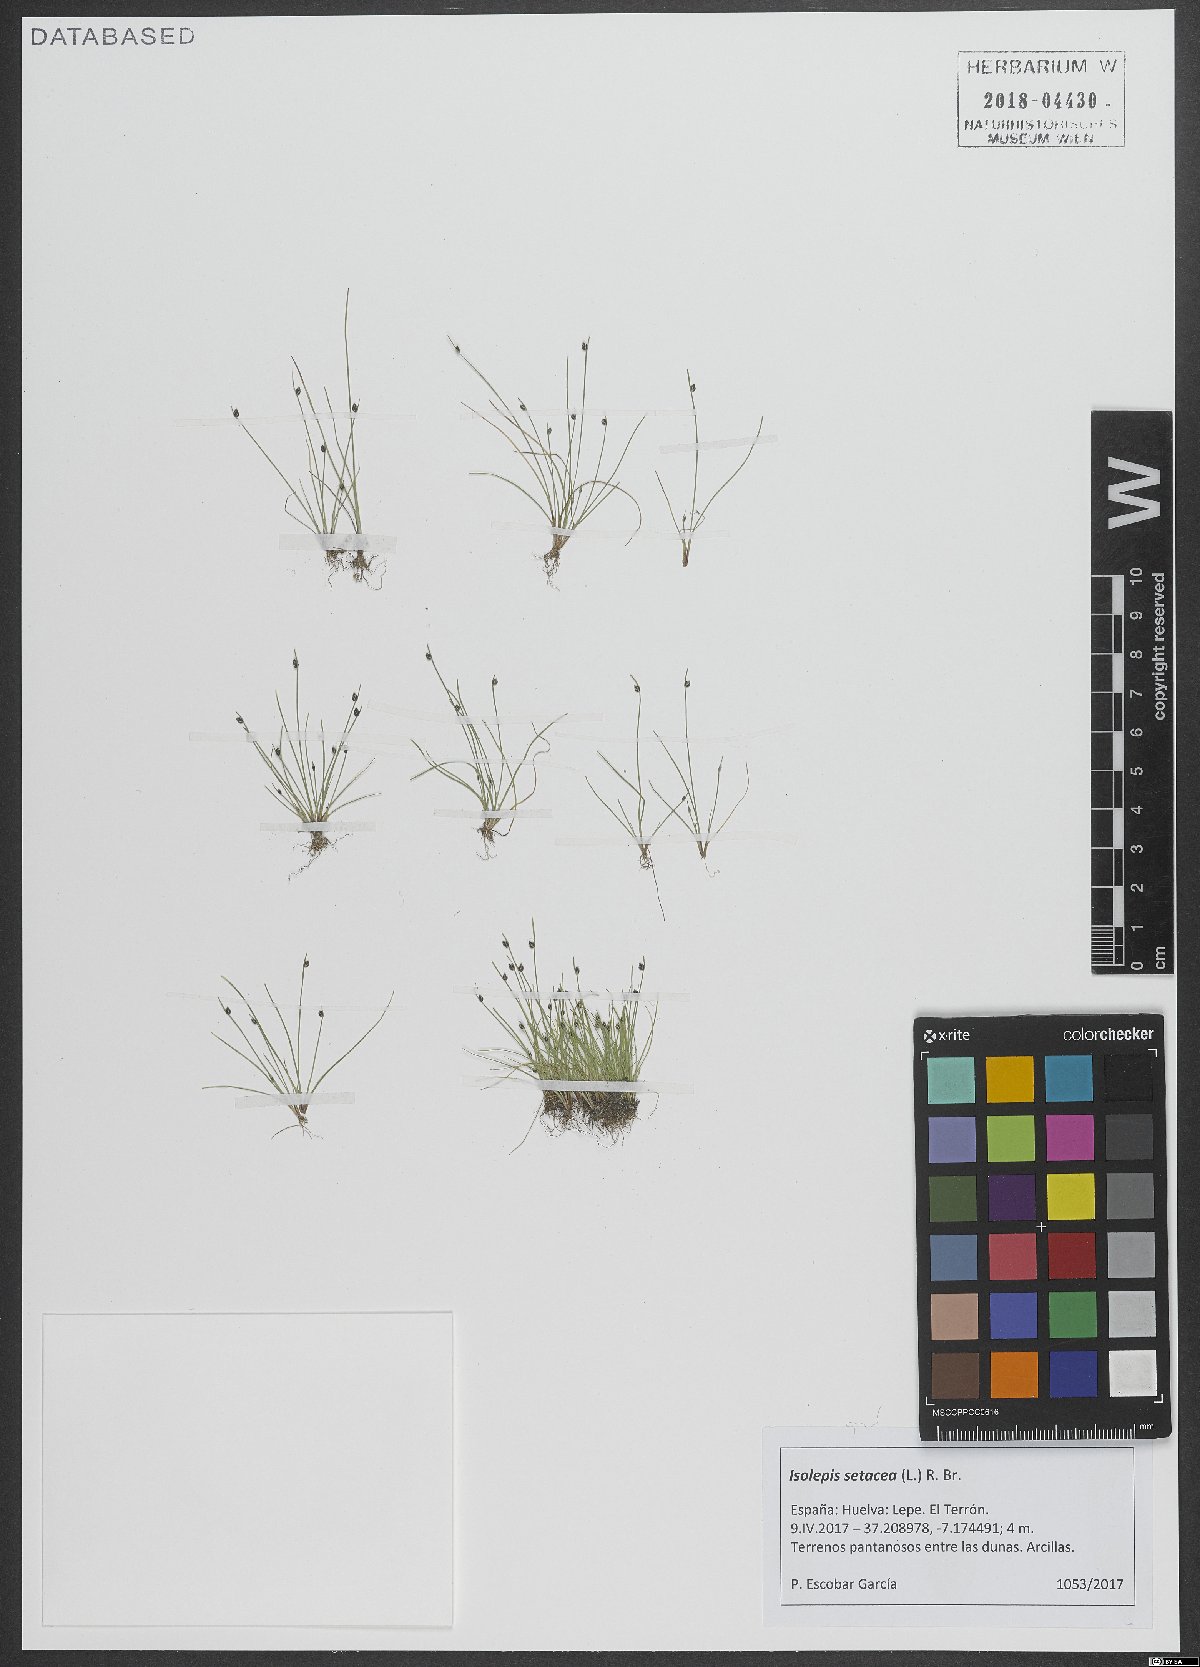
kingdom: Plantae
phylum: Tracheophyta
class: Liliopsida
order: Poales
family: Cyperaceae
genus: Isolepis
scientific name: Isolepis setacea
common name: Bristle club-rush
